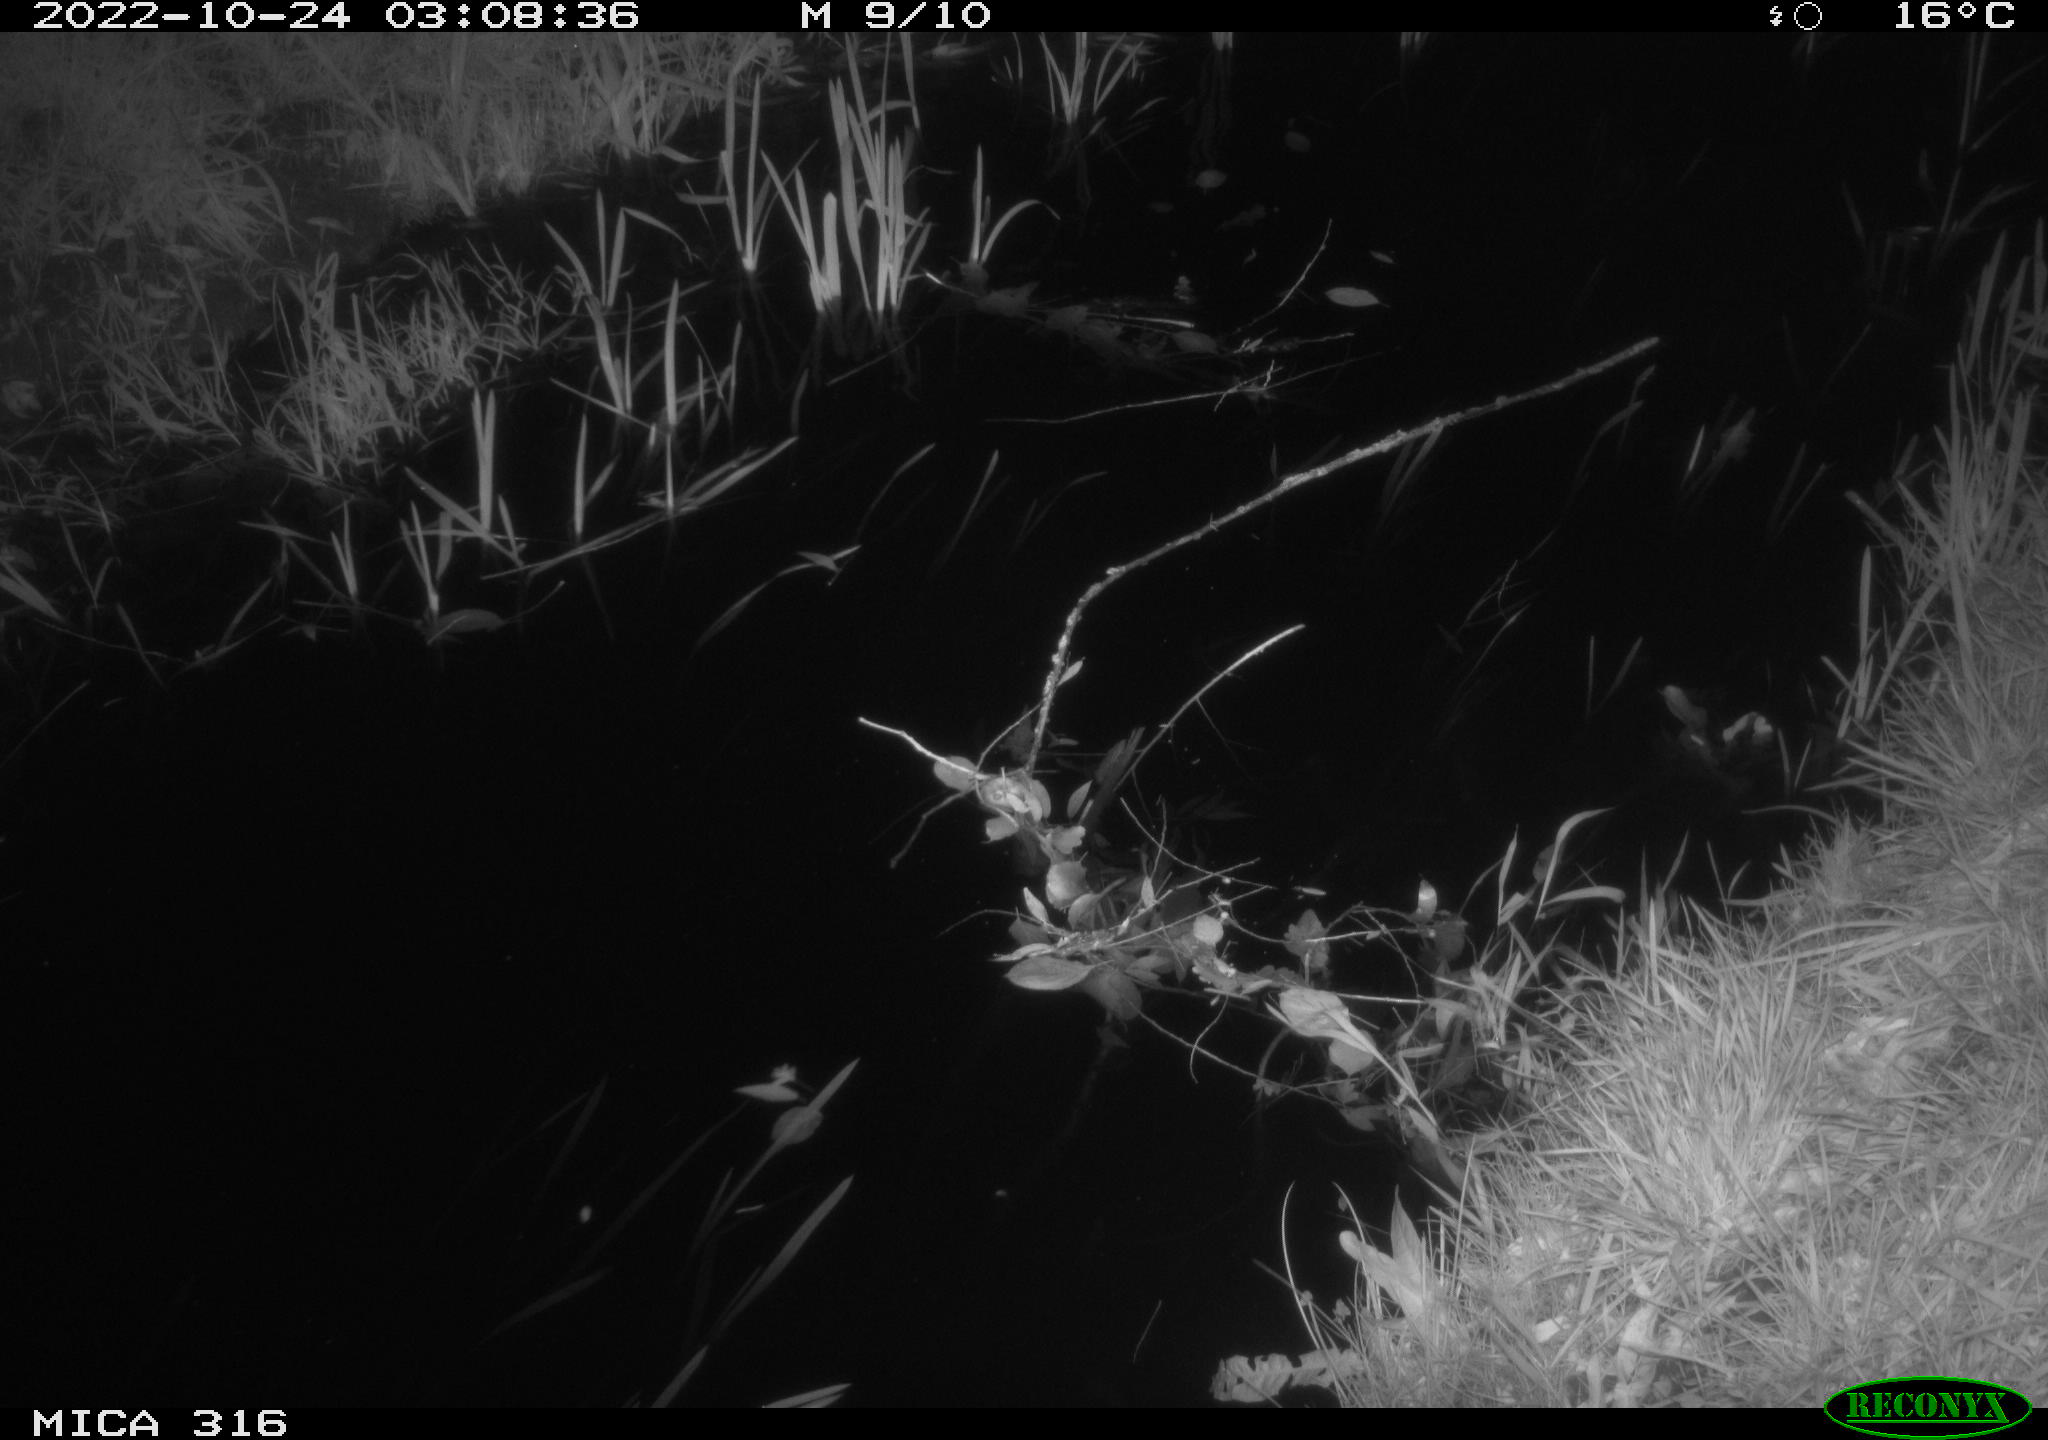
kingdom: Animalia
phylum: Chordata
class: Mammalia
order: Rodentia
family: Muridae
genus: Rattus
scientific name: Rattus norvegicus
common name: Brown rat
